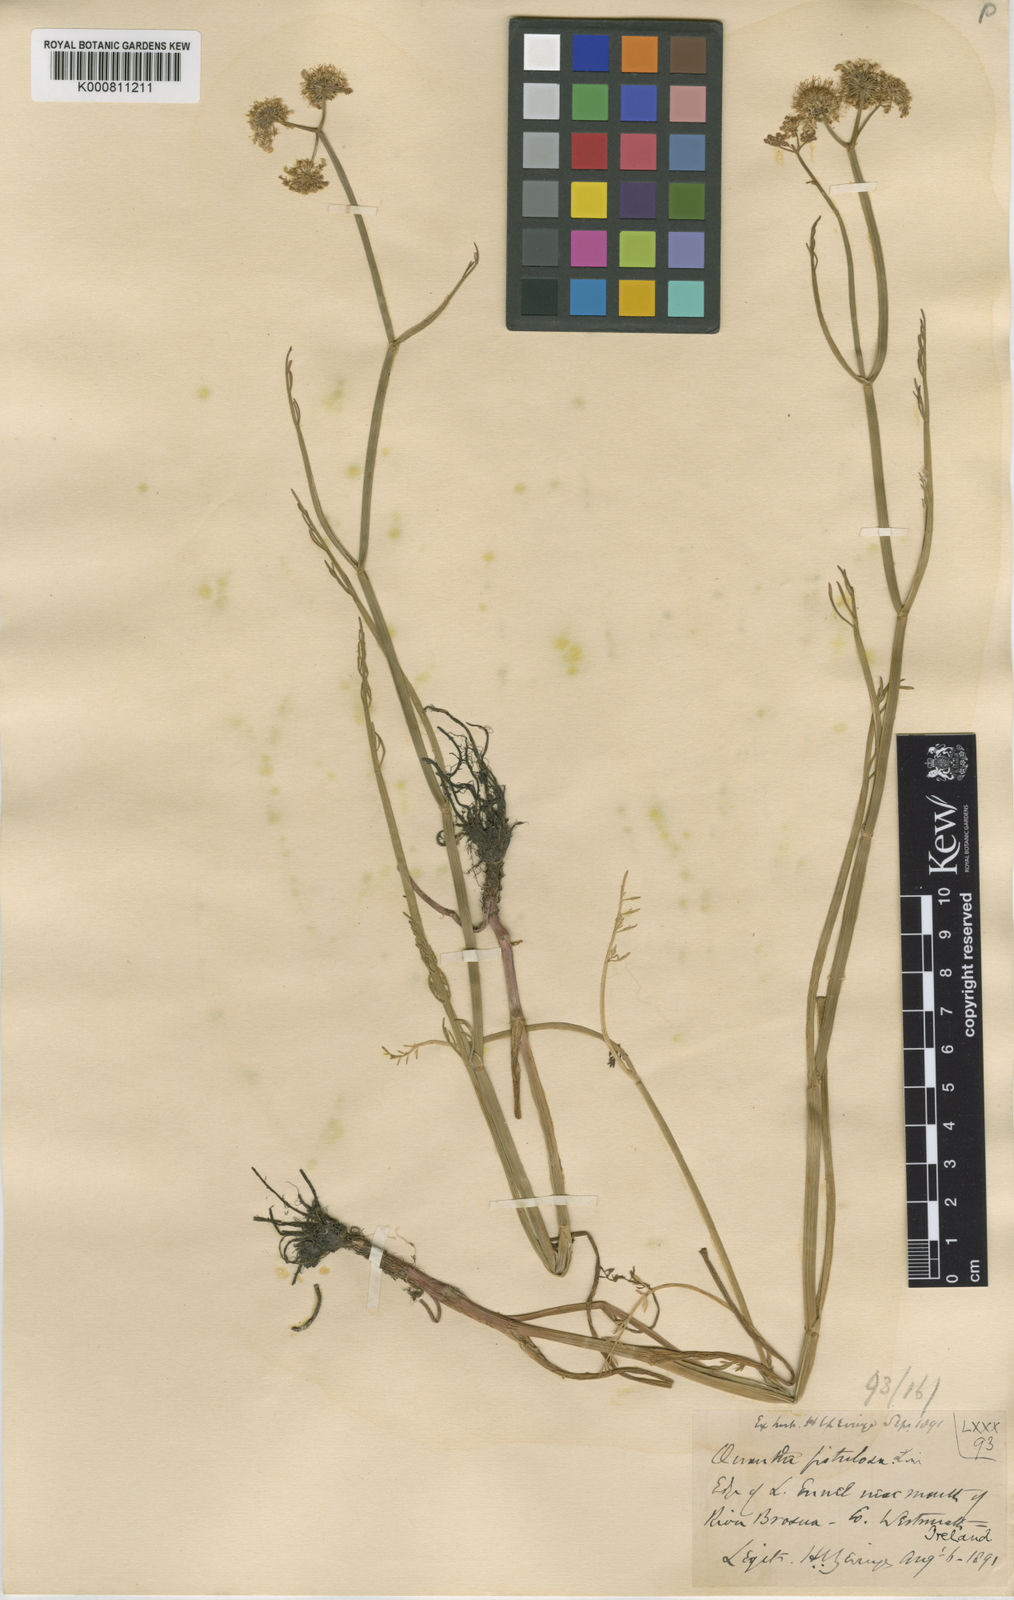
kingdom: Plantae
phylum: Tracheophyta
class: Magnoliopsida
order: Apiales
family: Apiaceae
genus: Oenanthe
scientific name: Oenanthe fistulosa
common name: Tubular water-dropwort
